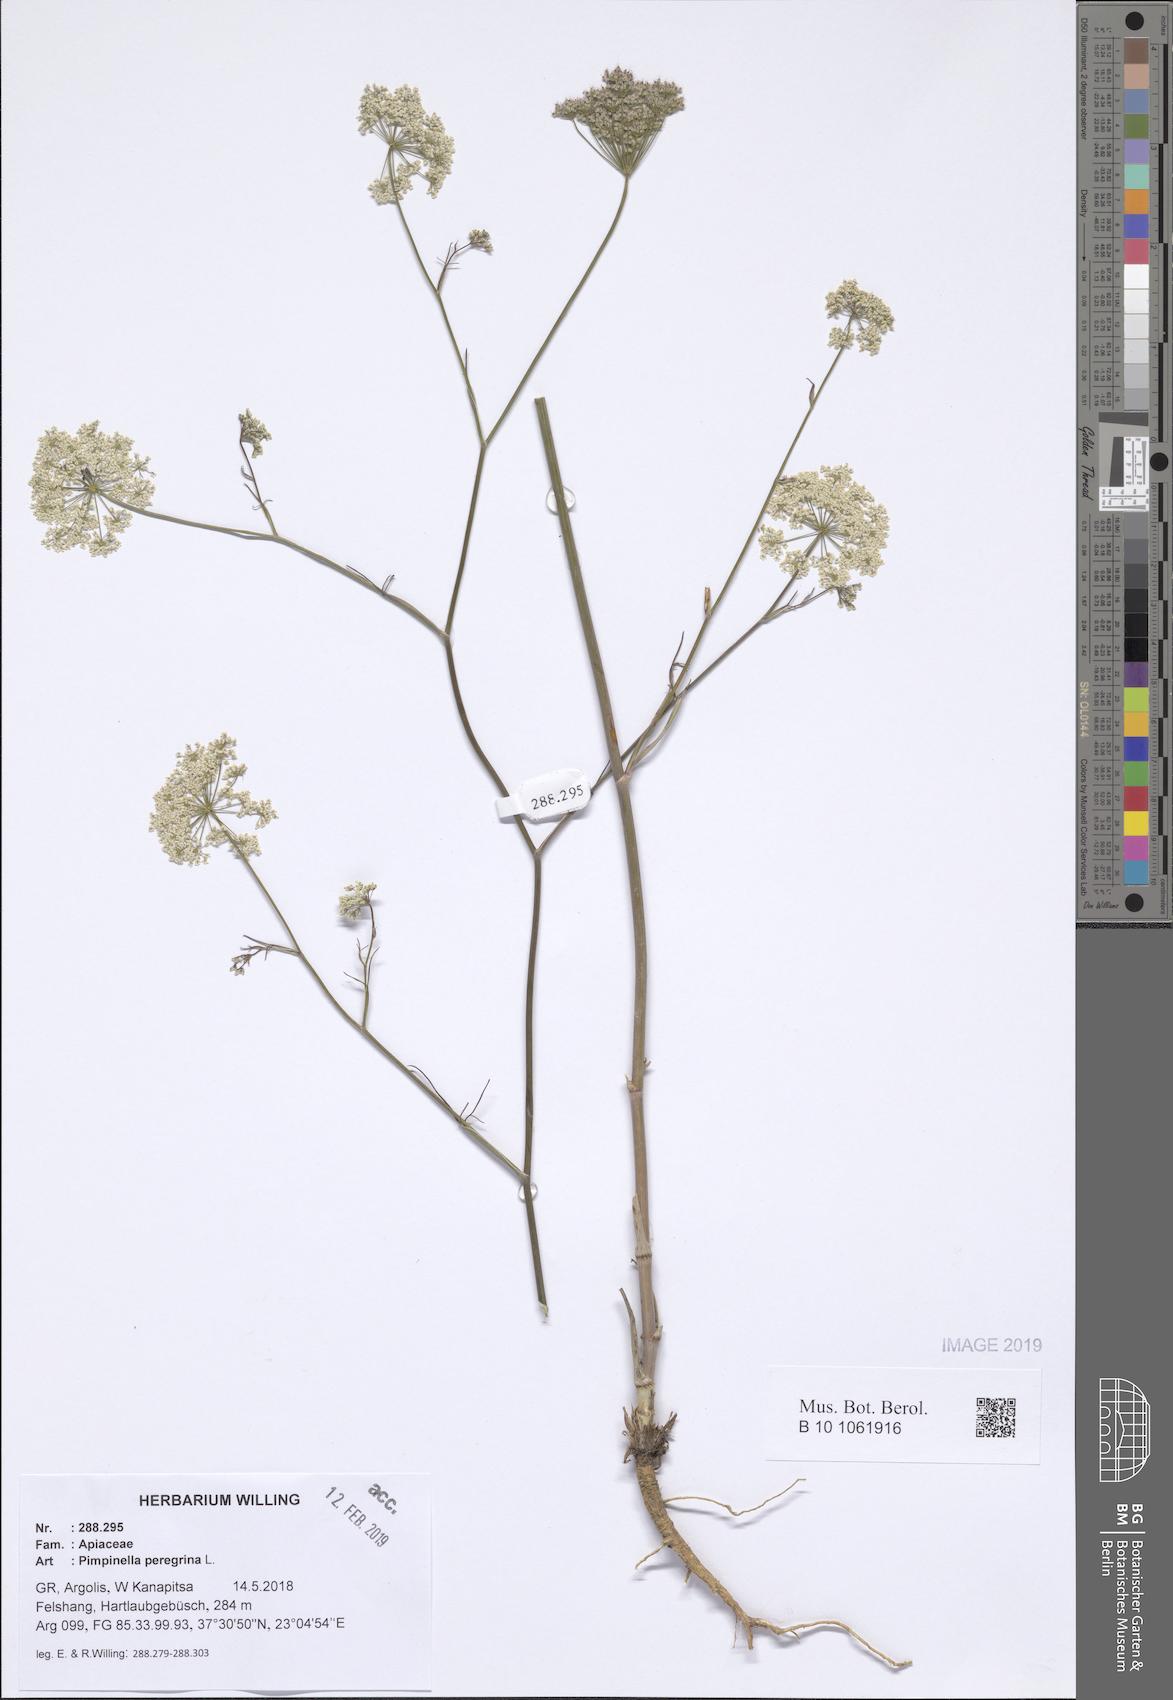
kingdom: Plantae
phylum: Tracheophyta
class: Magnoliopsida
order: Apiales
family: Apiaceae
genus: Pimpinella
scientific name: Pimpinella peregrina
